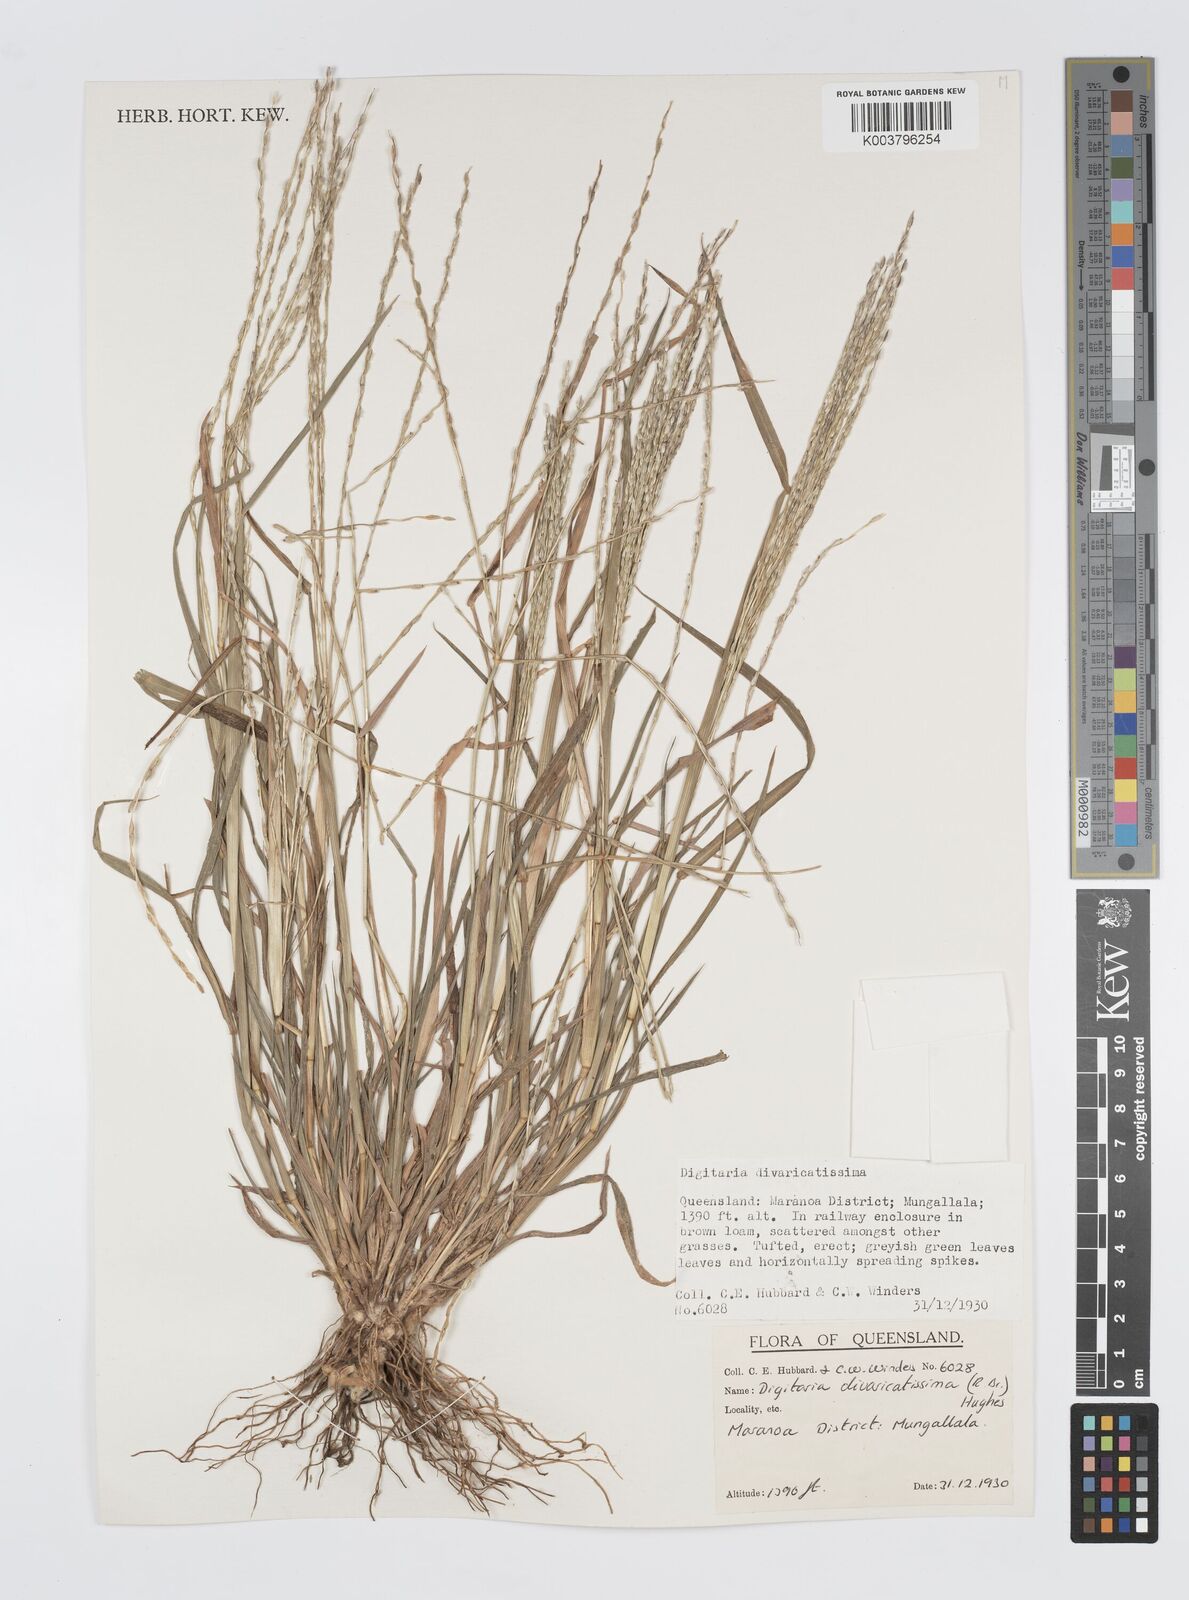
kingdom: Plantae
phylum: Tracheophyta
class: Liliopsida
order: Poales
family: Poaceae
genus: Digitaria
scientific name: Digitaria divaricatissima
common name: Crabgrass
